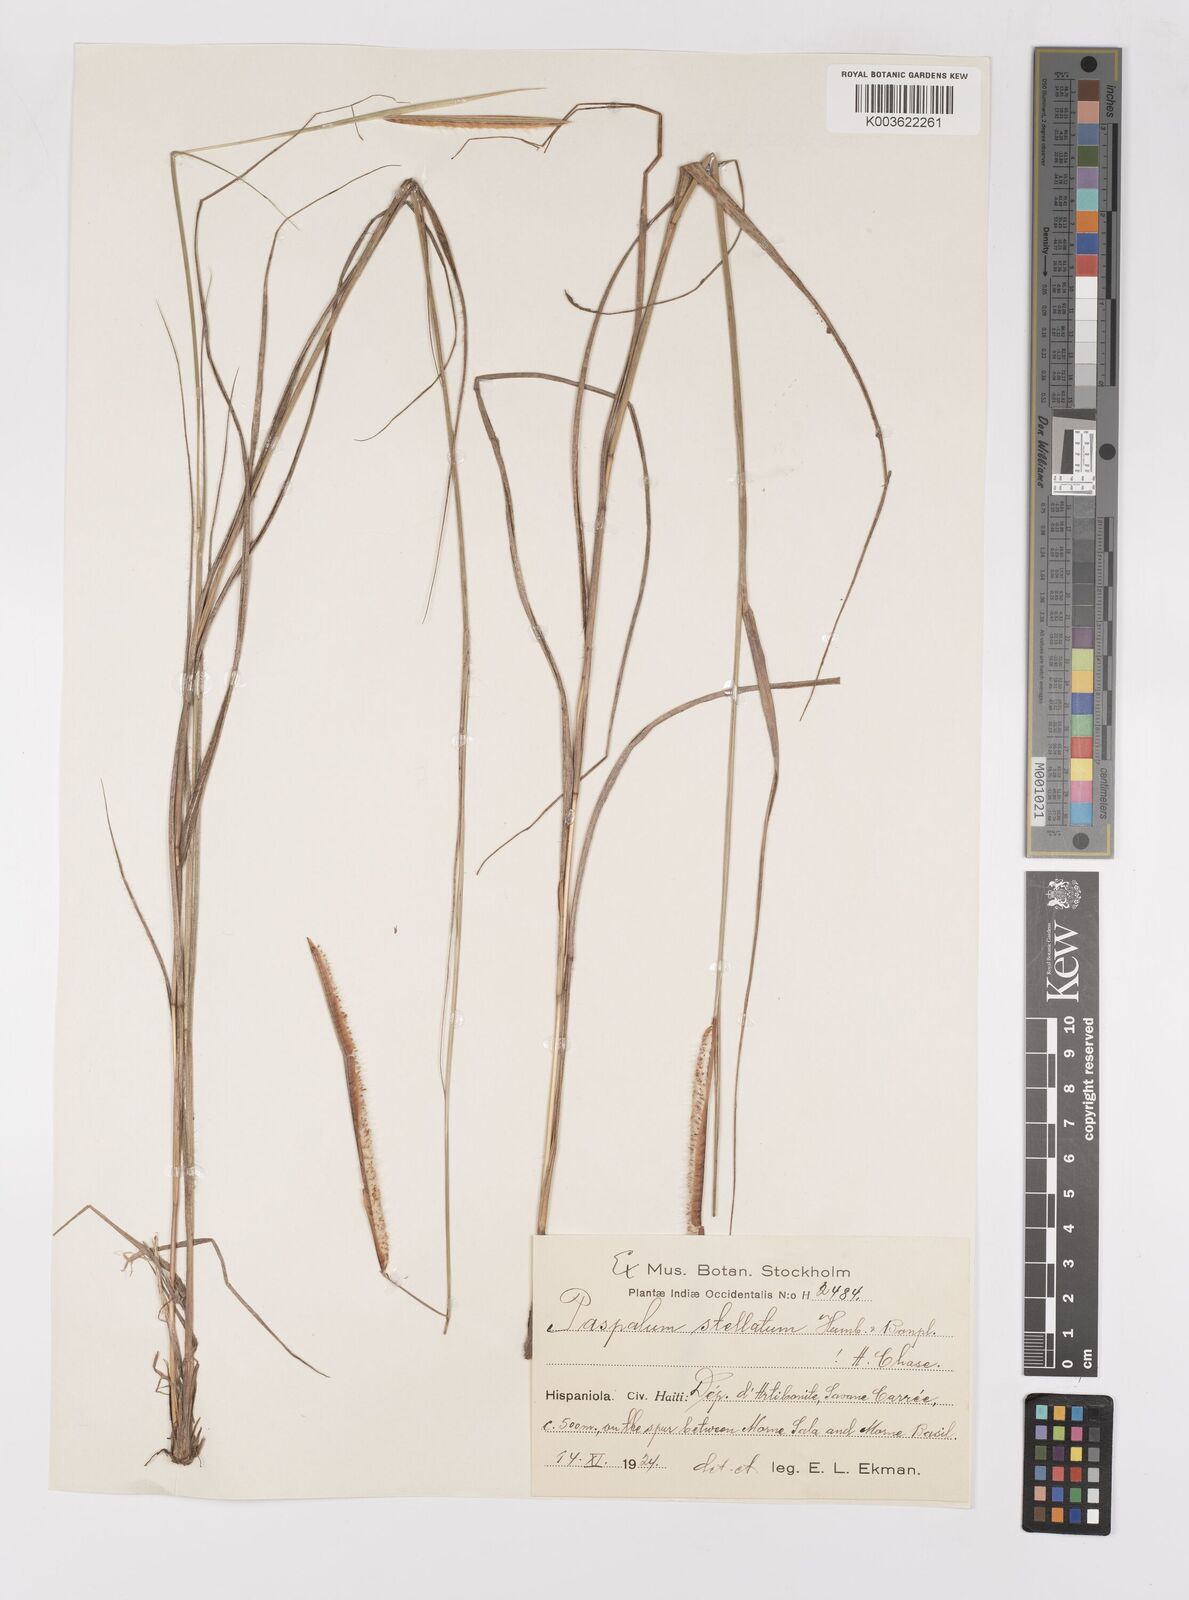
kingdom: Plantae
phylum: Tracheophyta
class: Liliopsida
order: Poales
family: Poaceae
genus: Paspalum
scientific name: Paspalum stellatum
